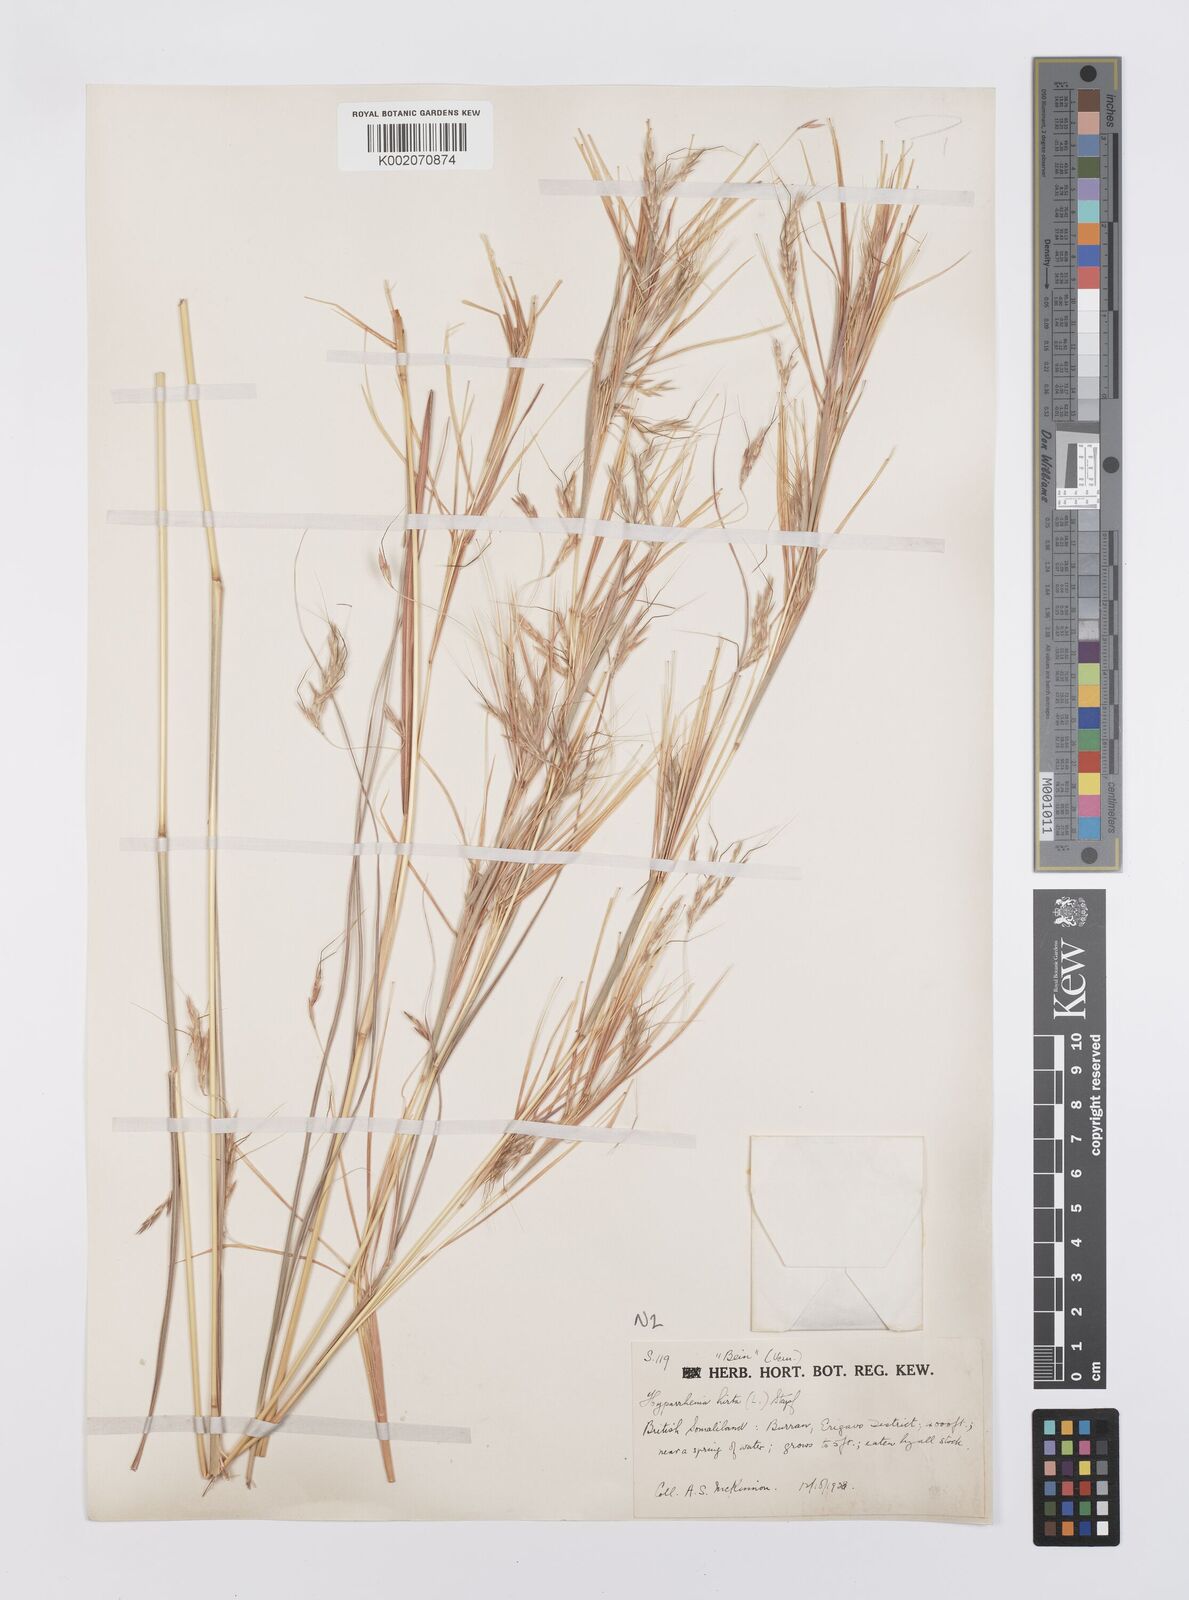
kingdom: Plantae
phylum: Tracheophyta
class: Liliopsida
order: Poales
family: Poaceae
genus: Hyparrhenia
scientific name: Hyparrhenia hirta
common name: Thatching grass
